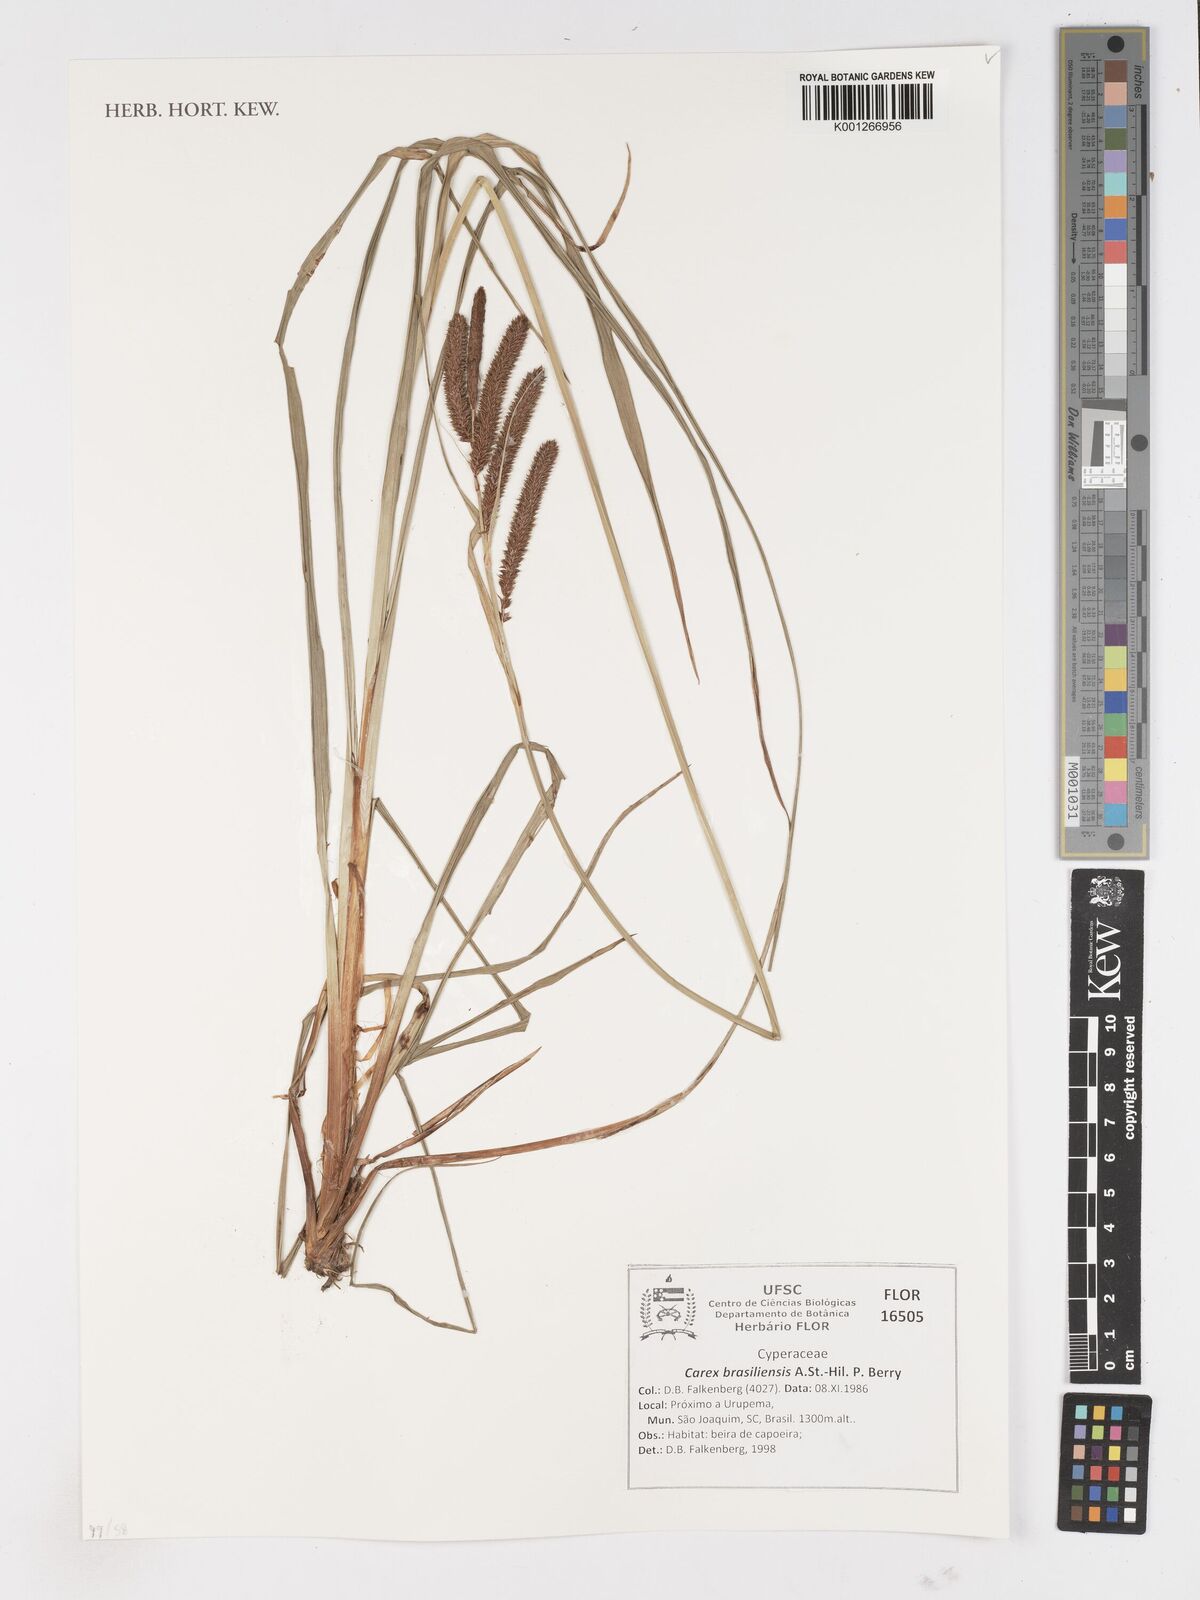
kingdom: Plantae
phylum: Tracheophyta
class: Liliopsida
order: Poales
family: Cyperaceae
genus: Carex
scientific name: Carex brasiliensis
